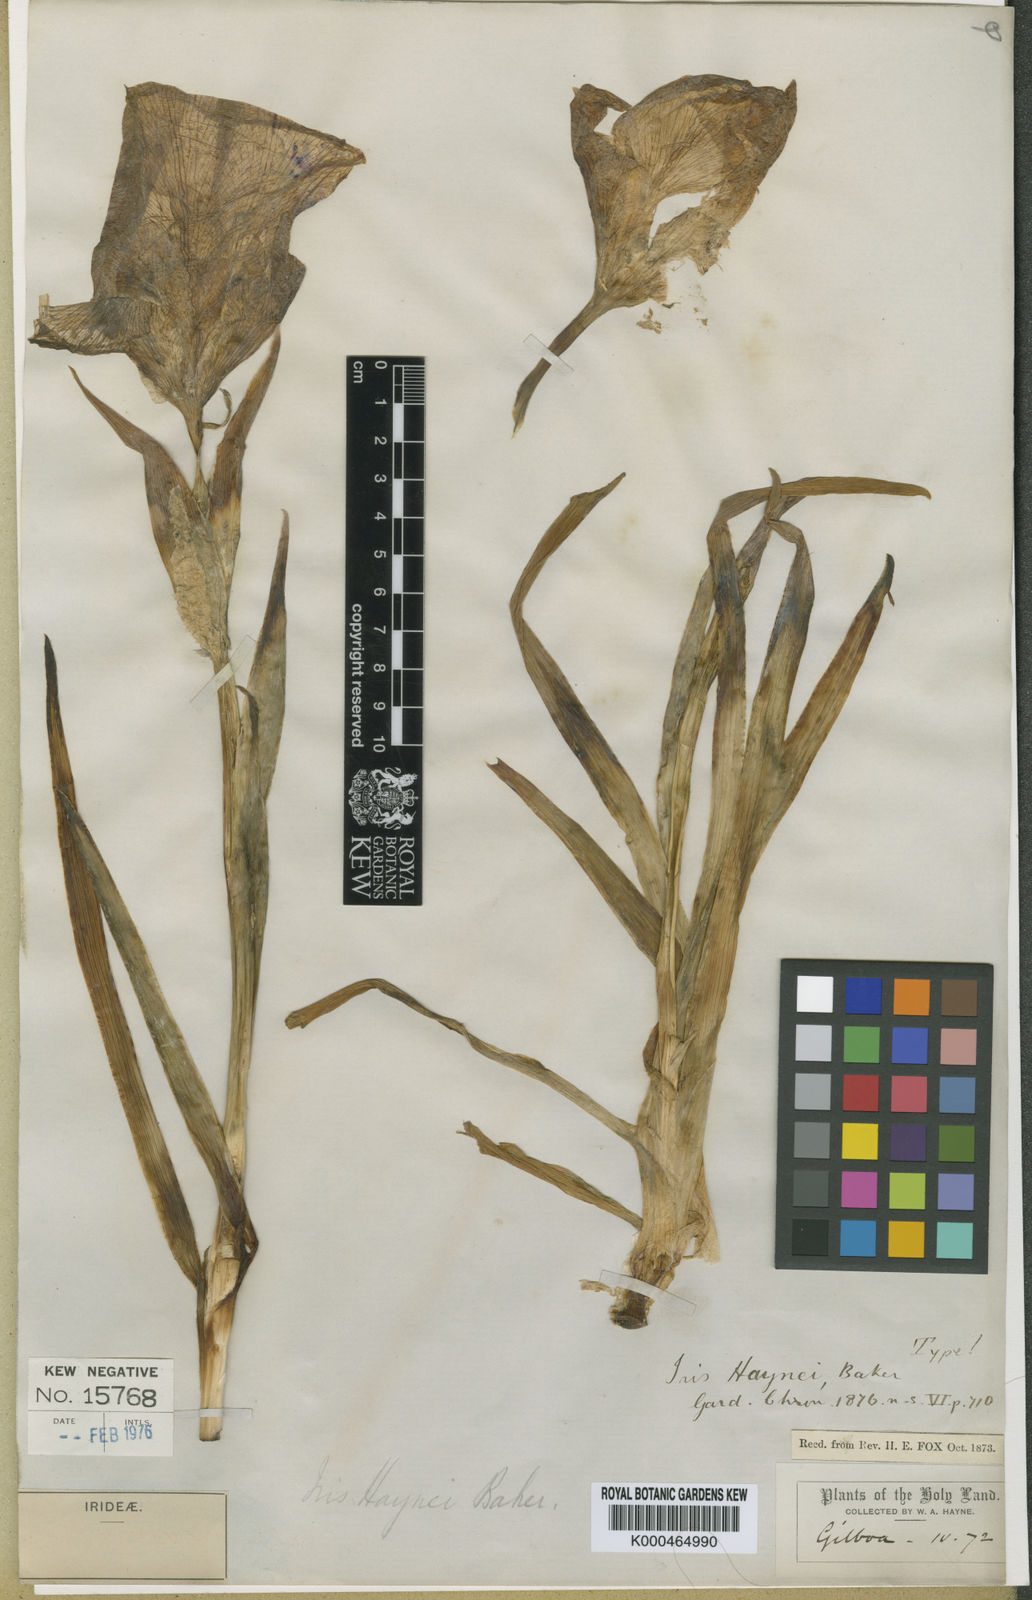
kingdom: Plantae
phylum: Tracheophyta
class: Liliopsida
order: Asparagales
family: Iridaceae
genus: Iris
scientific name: Iris atrofusca
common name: Asshafa iris
